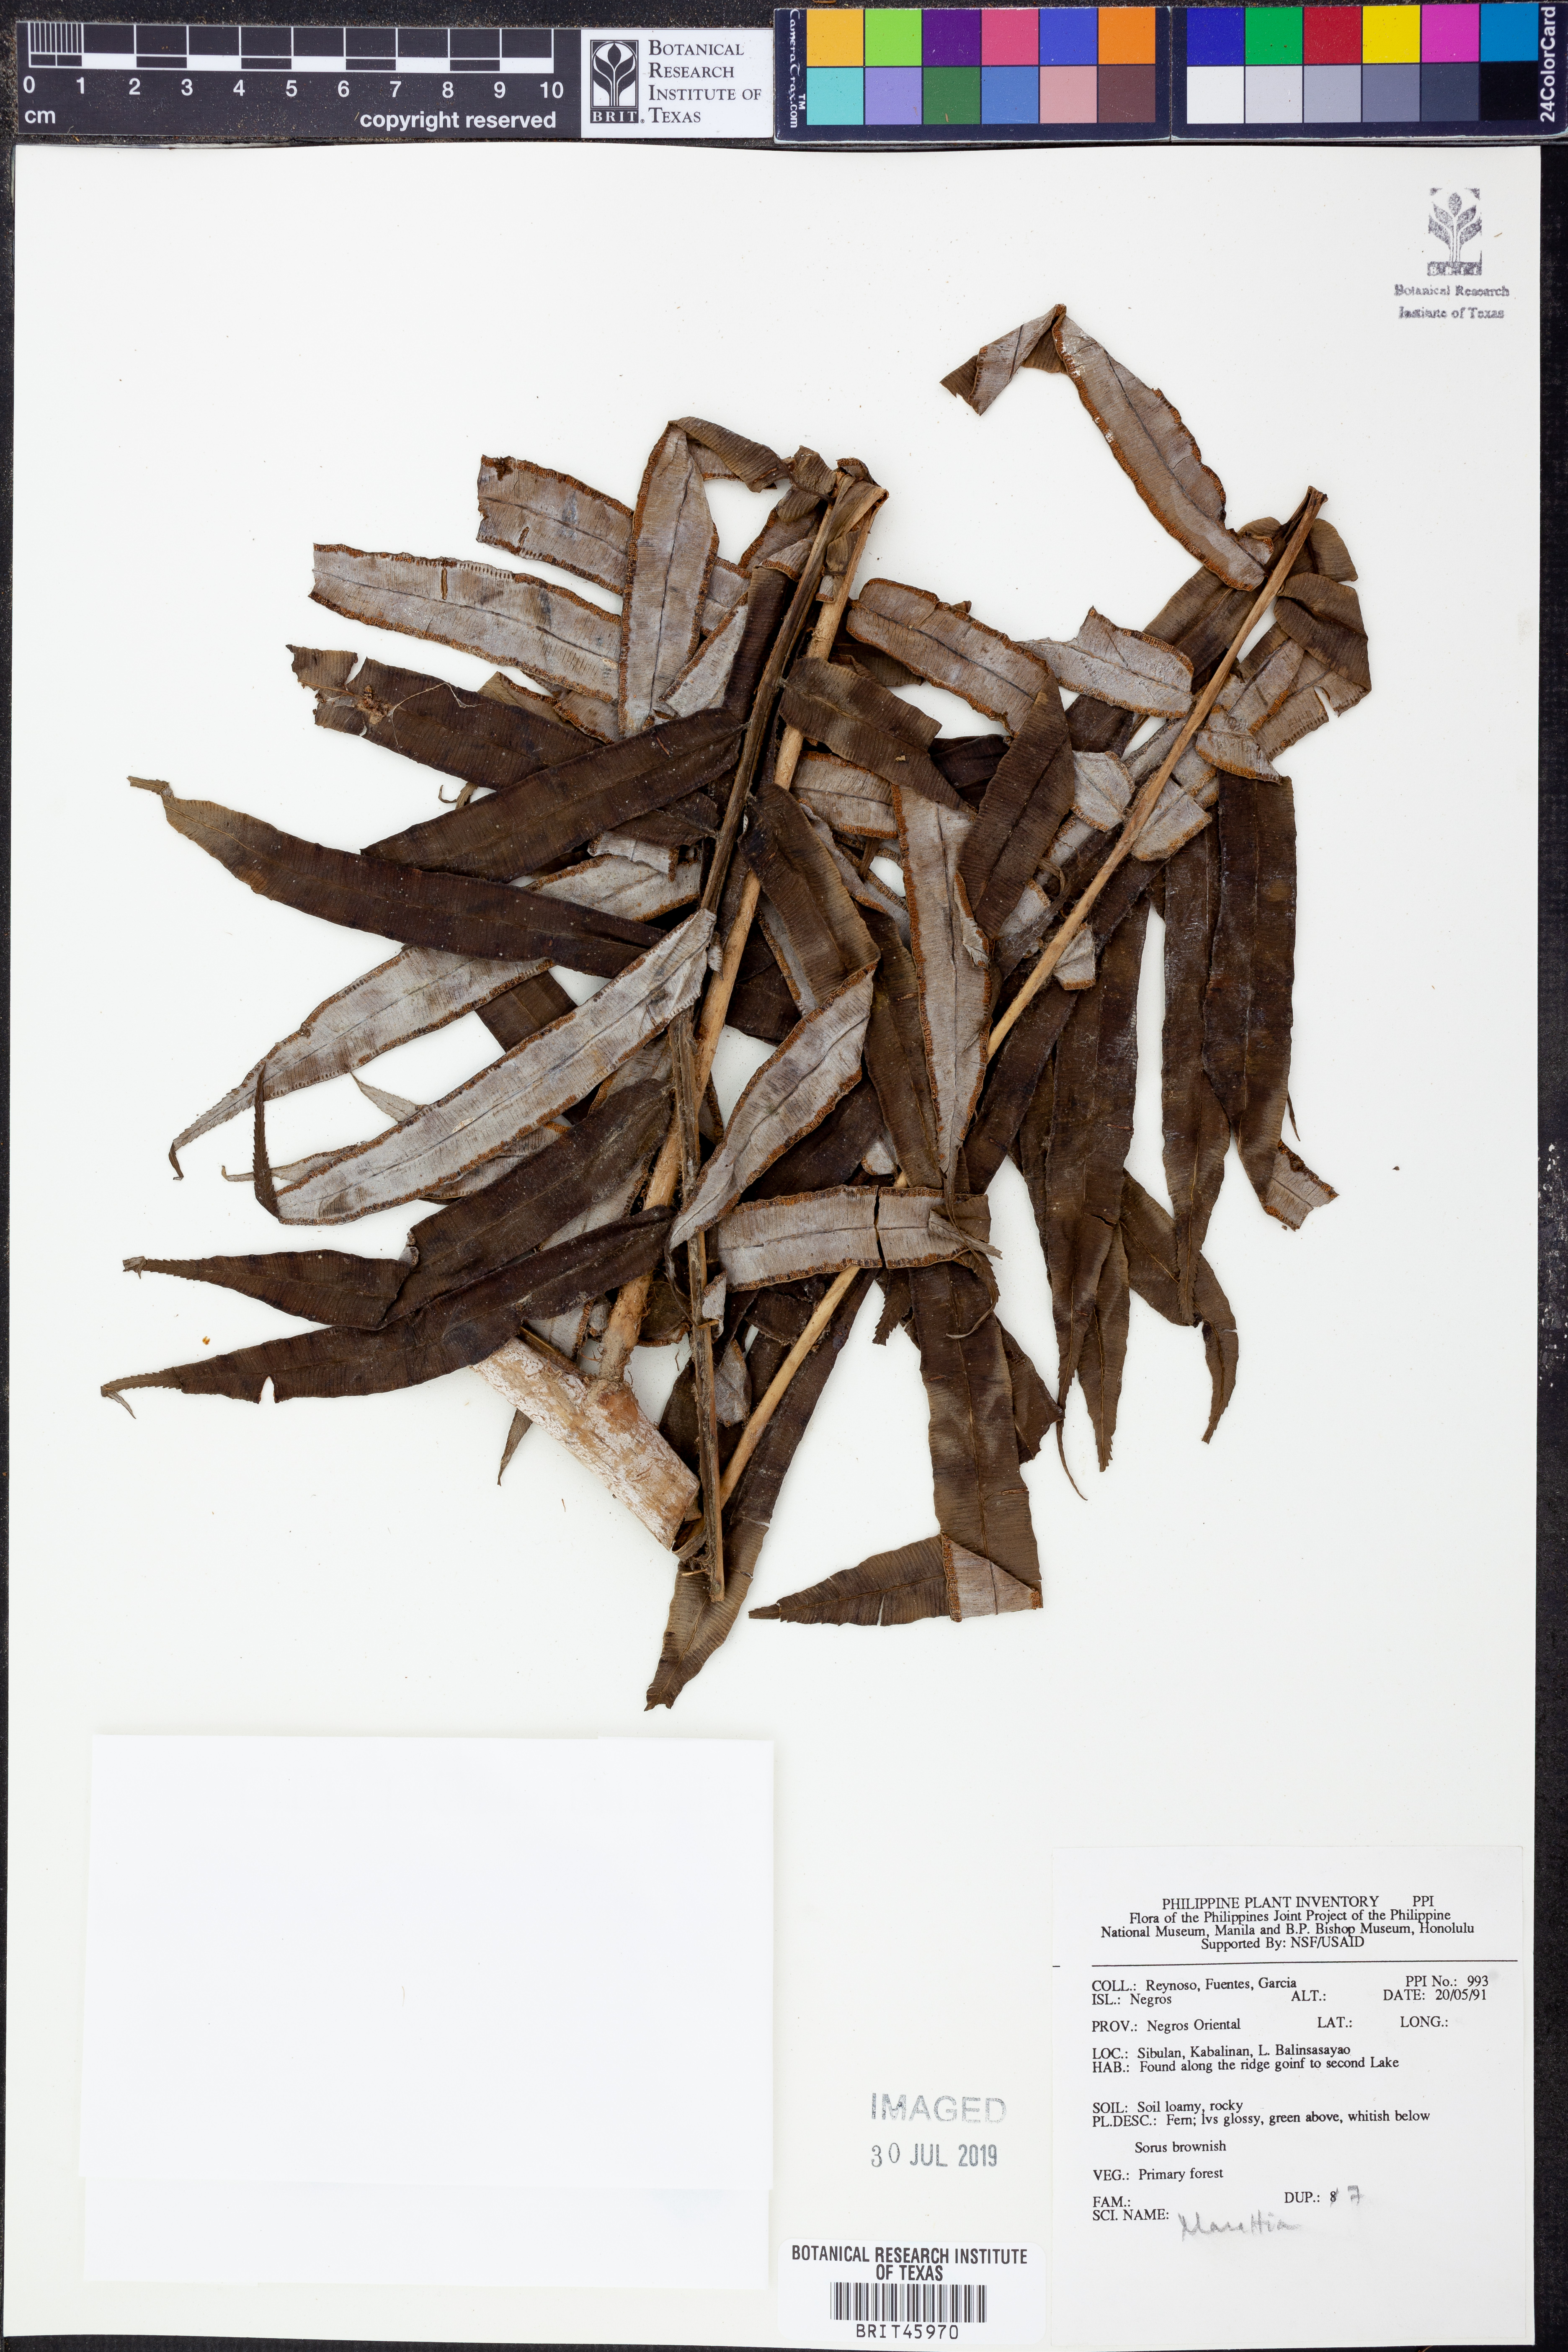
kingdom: Plantae
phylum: Tracheophyta
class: Polypodiopsida
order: Marattiales
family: Marattiaceae
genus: Marattia
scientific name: Marattia
